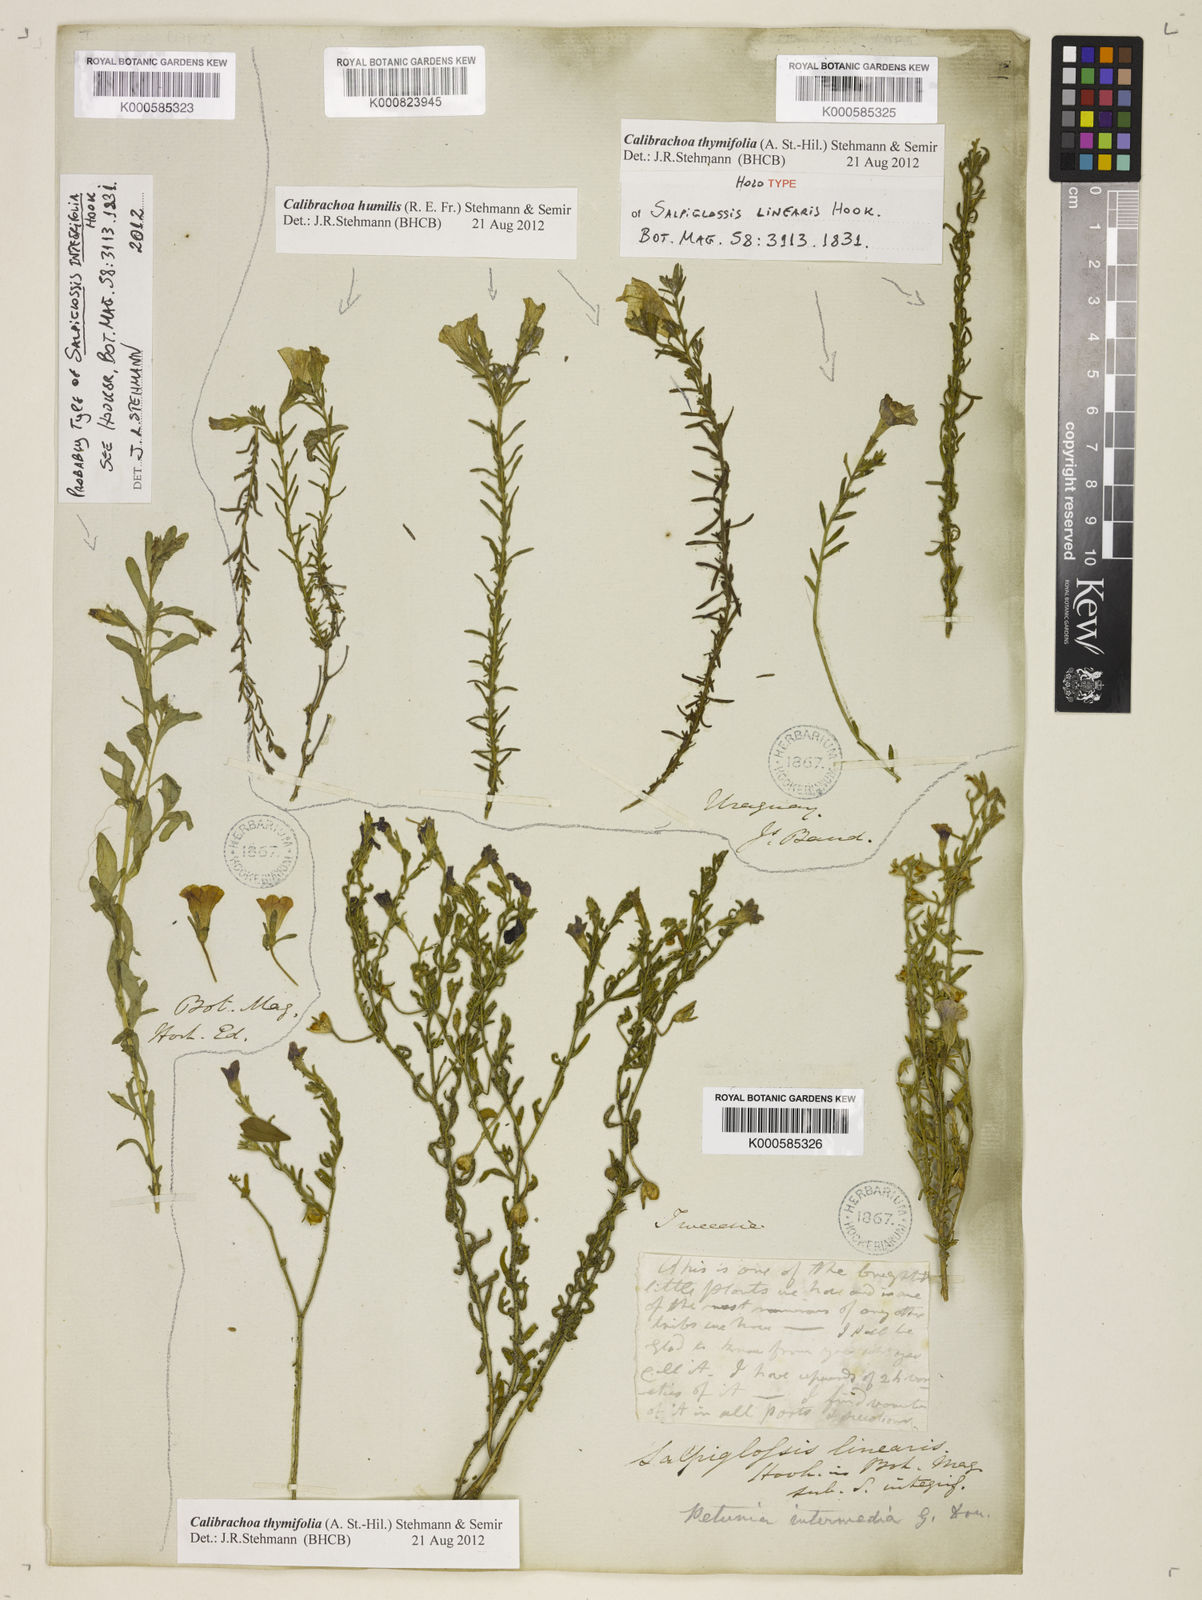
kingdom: Plantae
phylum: Tracheophyta
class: Magnoliopsida
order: Solanales
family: Solanaceae
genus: Calibrachoa
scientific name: Calibrachoa thymifolia
